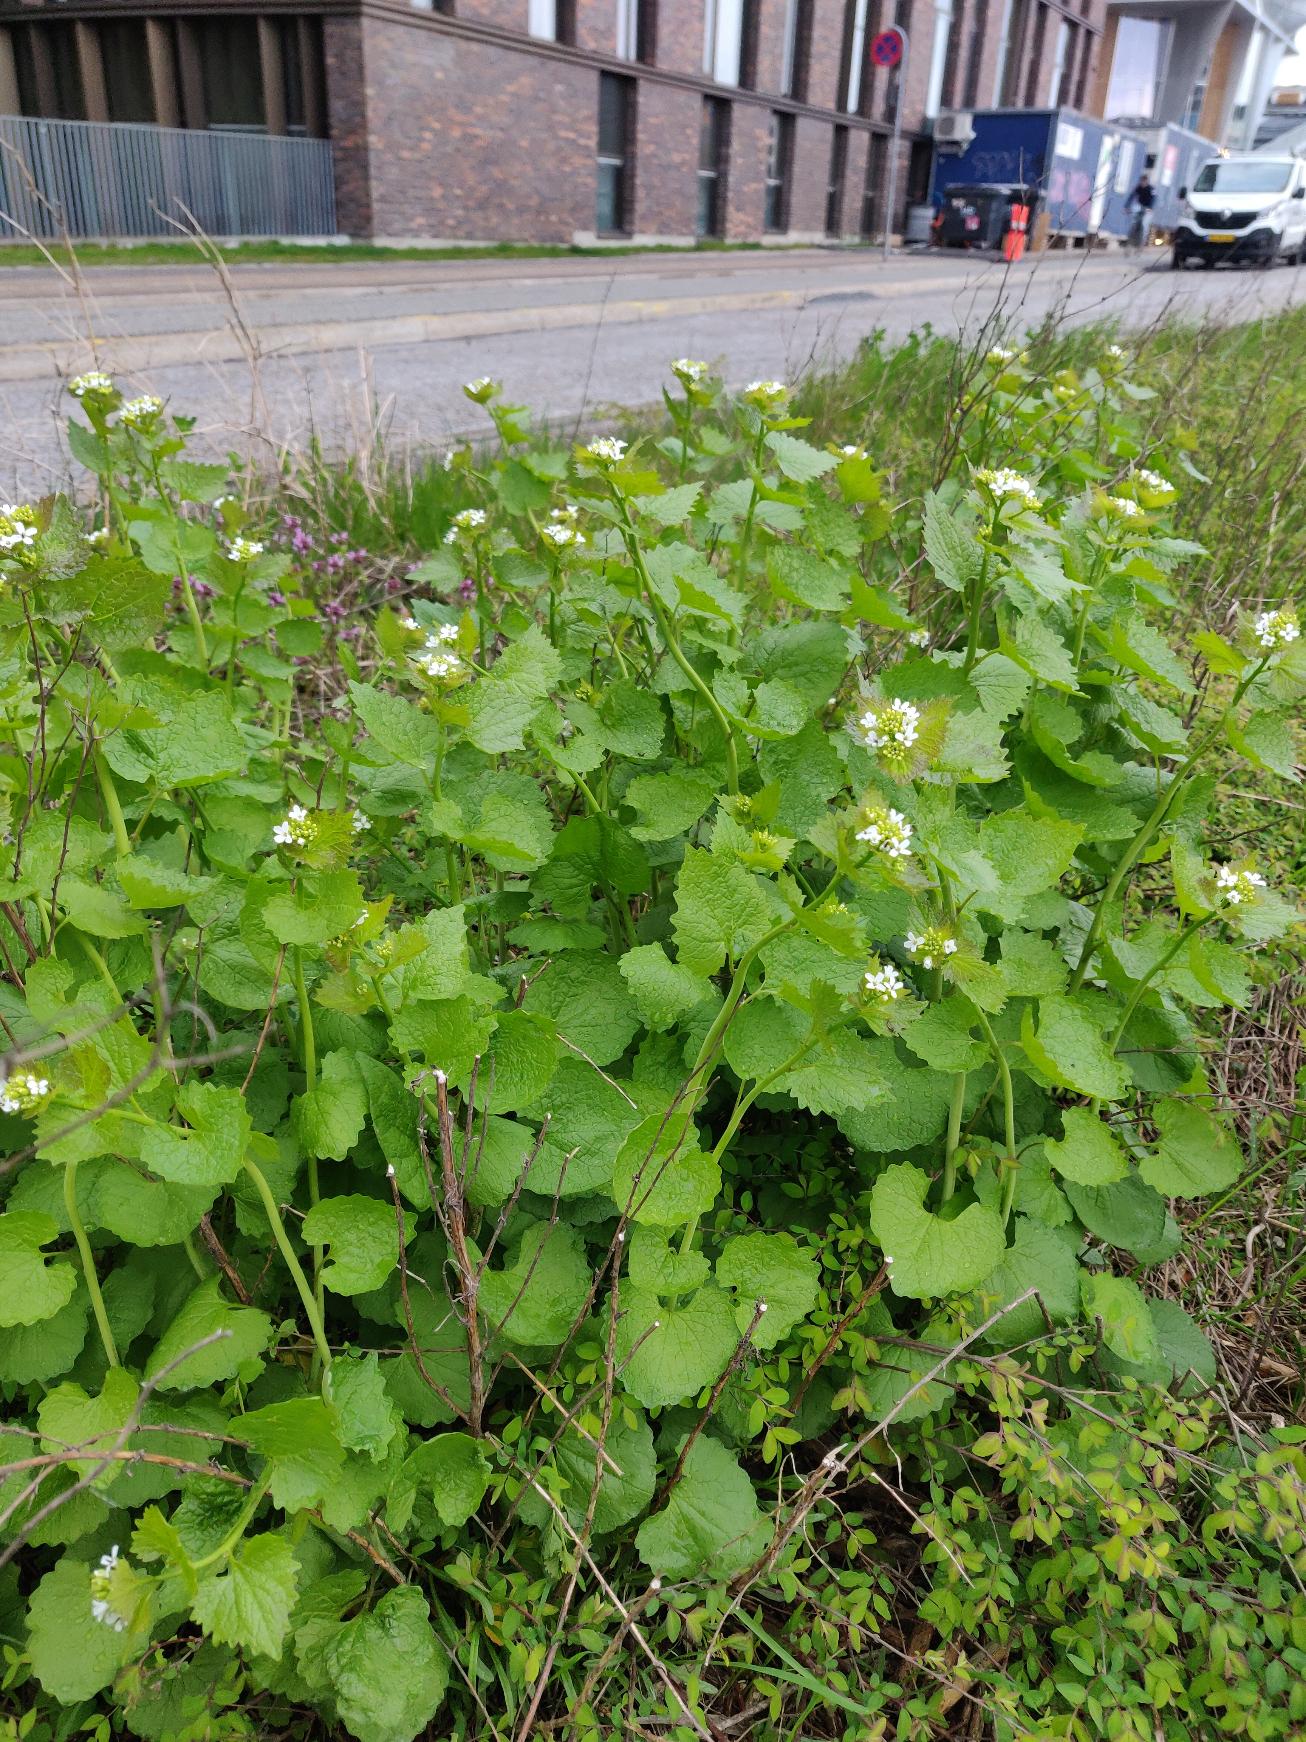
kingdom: Plantae
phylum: Tracheophyta
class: Magnoliopsida
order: Brassicales
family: Brassicaceae
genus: Alliaria
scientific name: Alliaria petiolata
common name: Løgkarse
